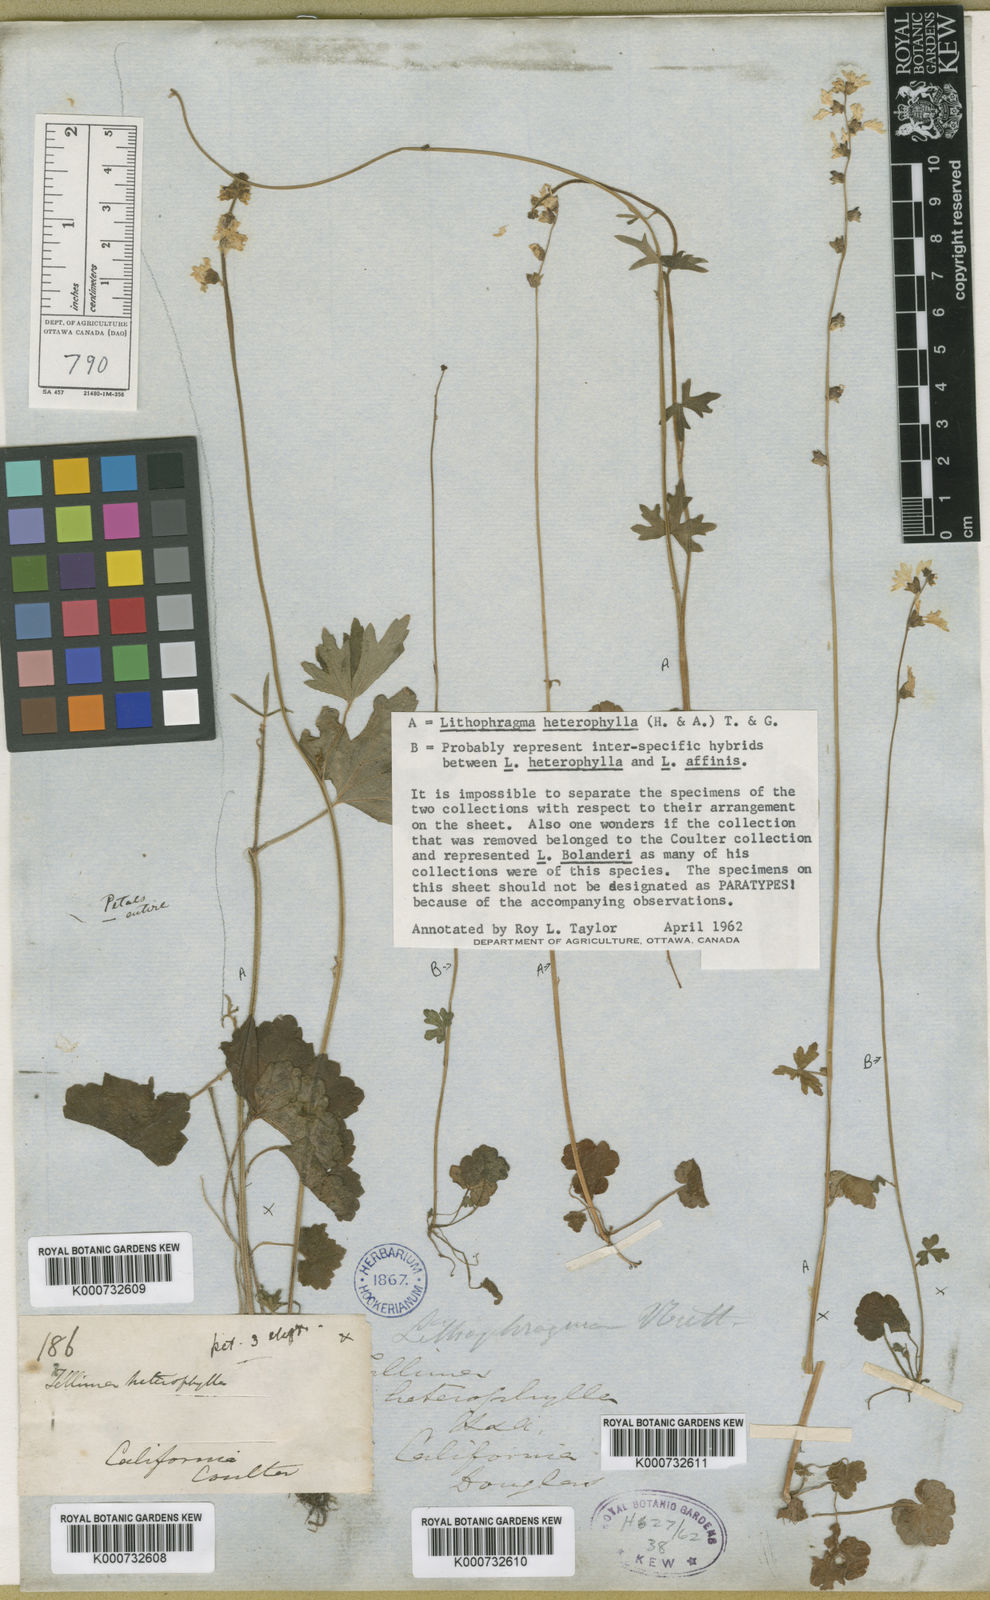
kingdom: Plantae
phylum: Tracheophyta
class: Magnoliopsida
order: Saxifragales
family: Saxifragaceae
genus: Lithophragma
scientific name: Lithophragma heterophyllum
